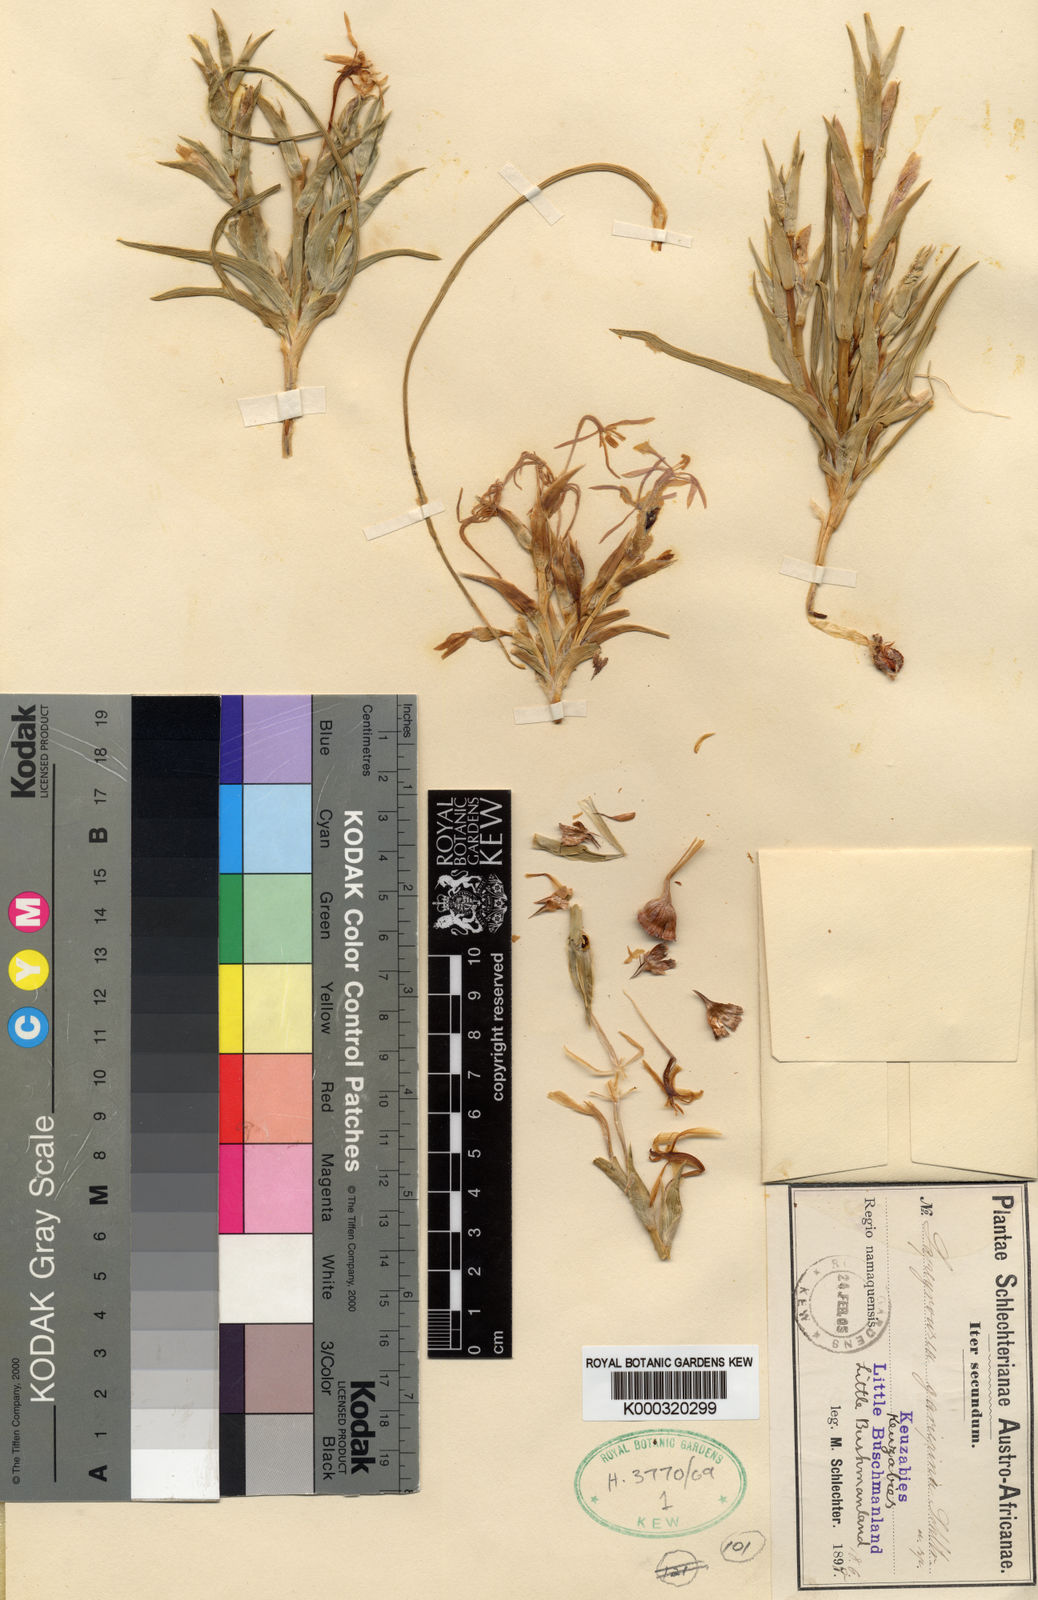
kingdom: Plantae
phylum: Tracheophyta
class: Liliopsida
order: Asparagales
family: Iridaceae
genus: Lapeirousia
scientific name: Lapeirousia littoralis
